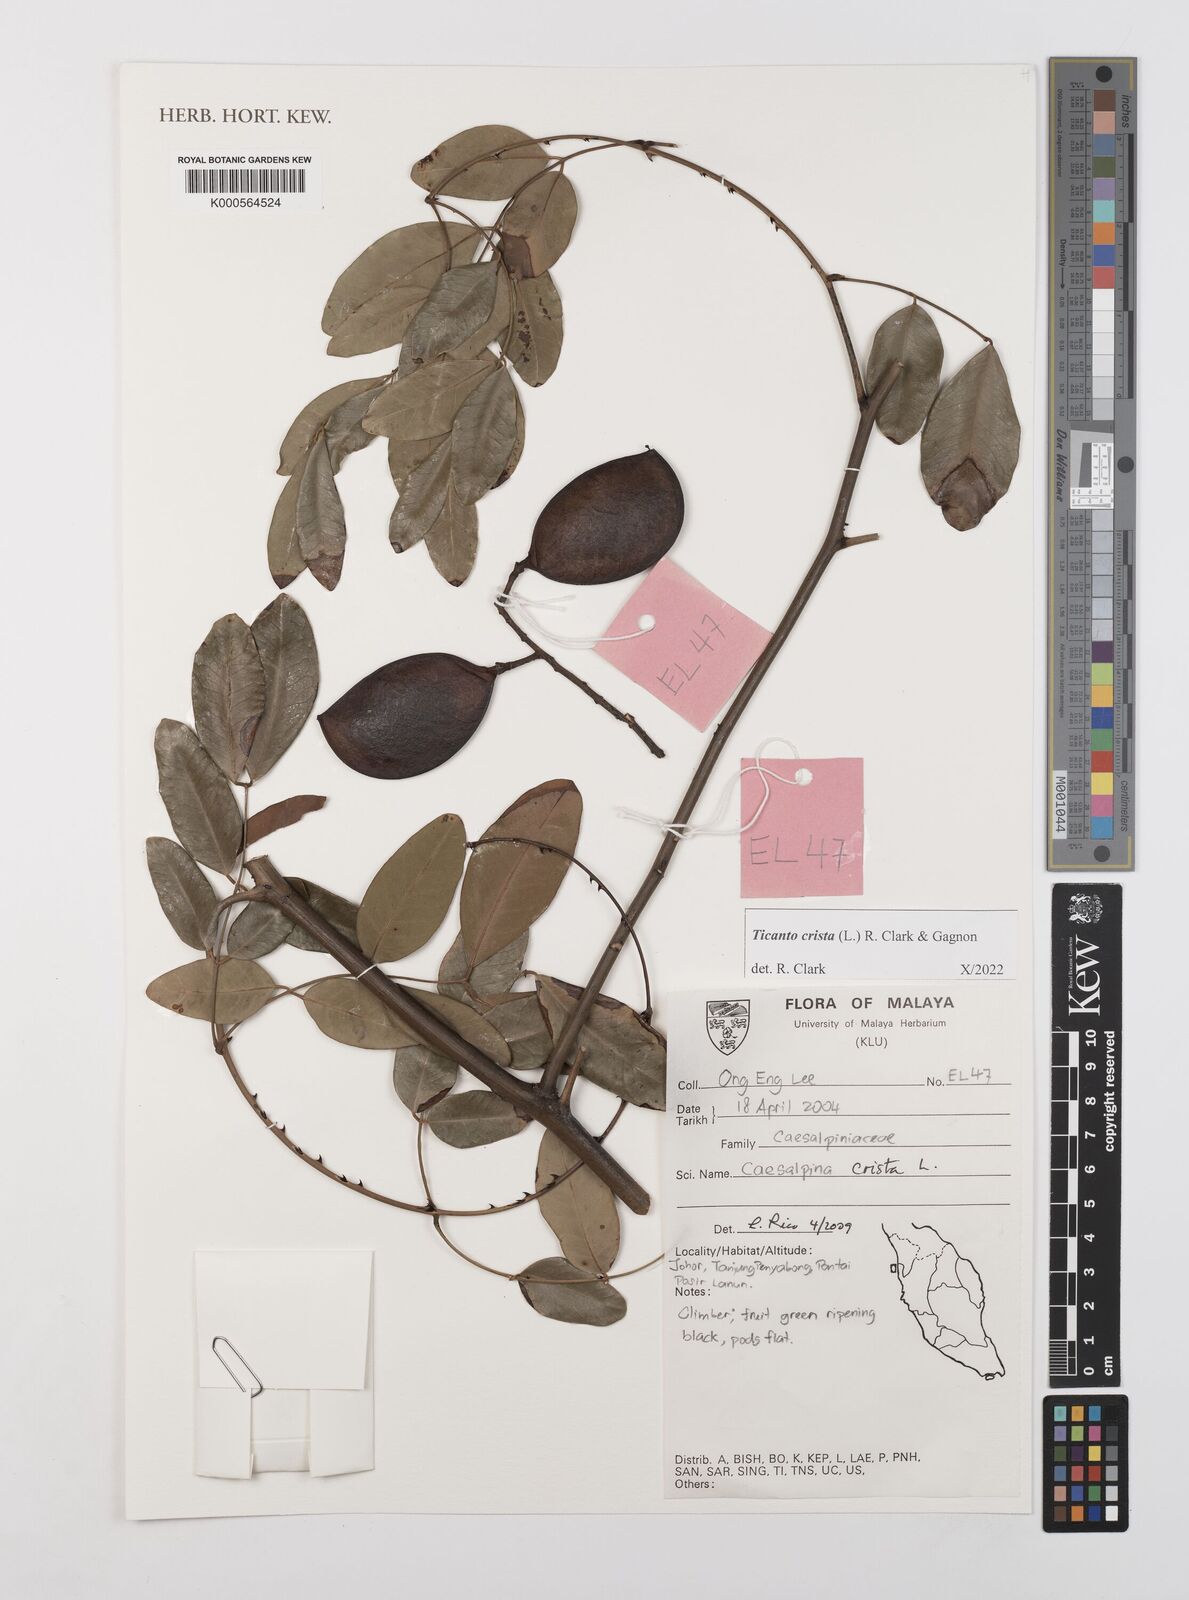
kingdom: Plantae
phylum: Tracheophyta
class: Magnoliopsida
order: Fabales
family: Fabaceae
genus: Caesalpinia
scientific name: Caesalpinia Ticanto crista
